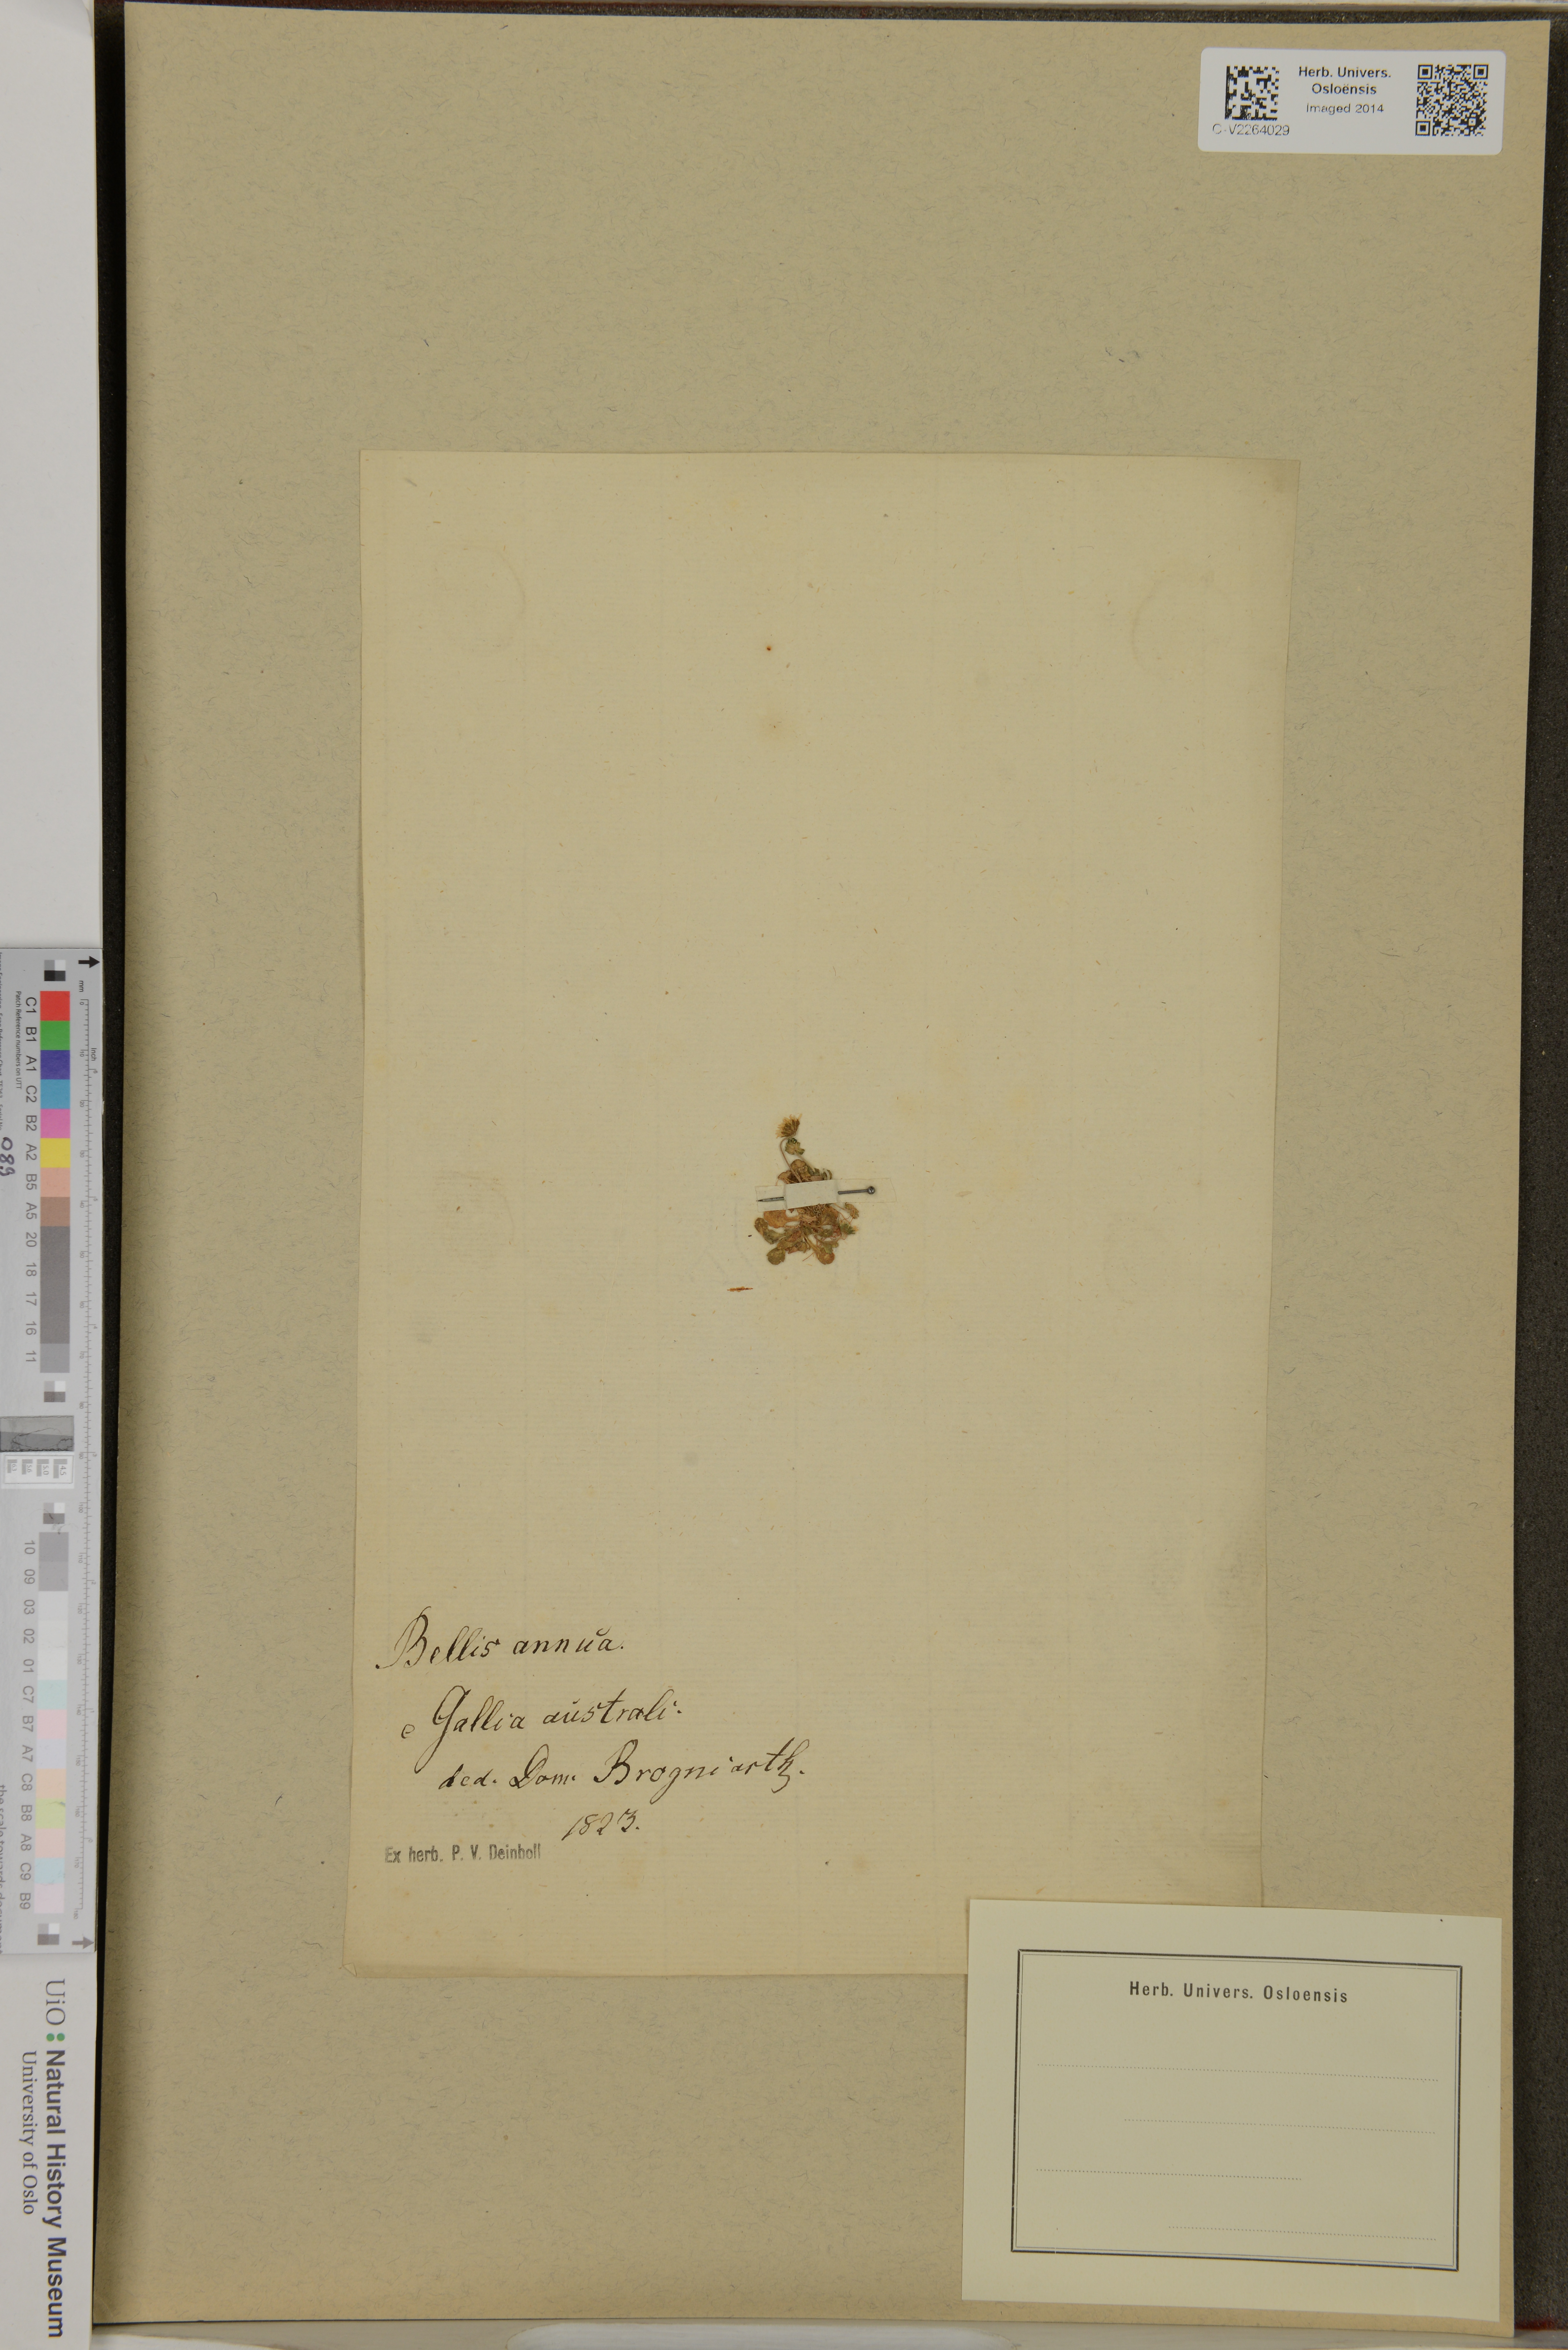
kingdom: Plantae
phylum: Tracheophyta
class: Magnoliopsida
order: Asterales
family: Asteraceae
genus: Bellis
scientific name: Bellis annua
